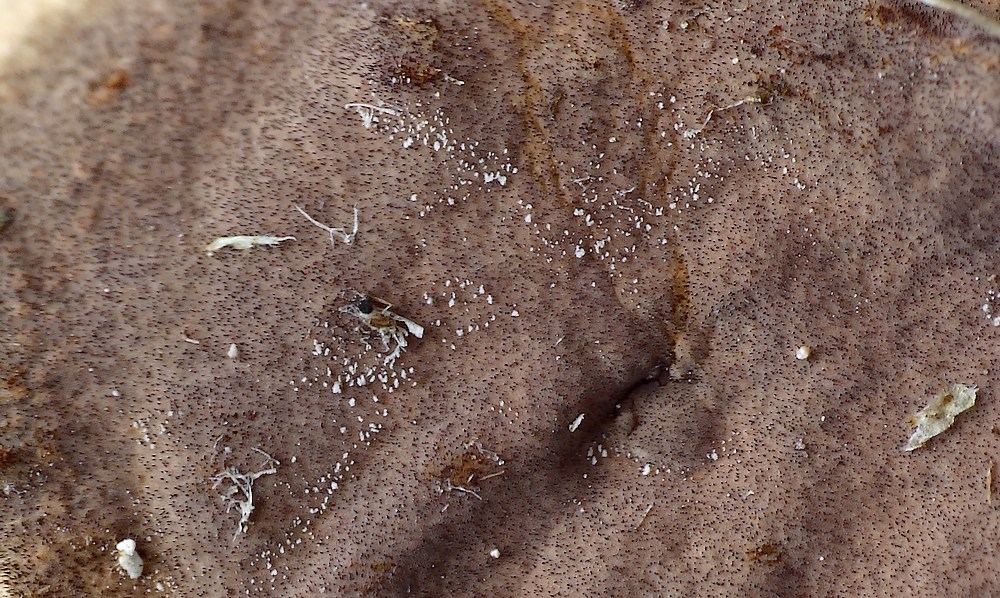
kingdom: Fungi
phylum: Basidiomycota
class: Agaricomycetes
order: Hymenochaetales
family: Hymenochaetaceae
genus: Hydnoporia
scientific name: Hydnoporia tabacina
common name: tobaksbrun ruslædersvamp
